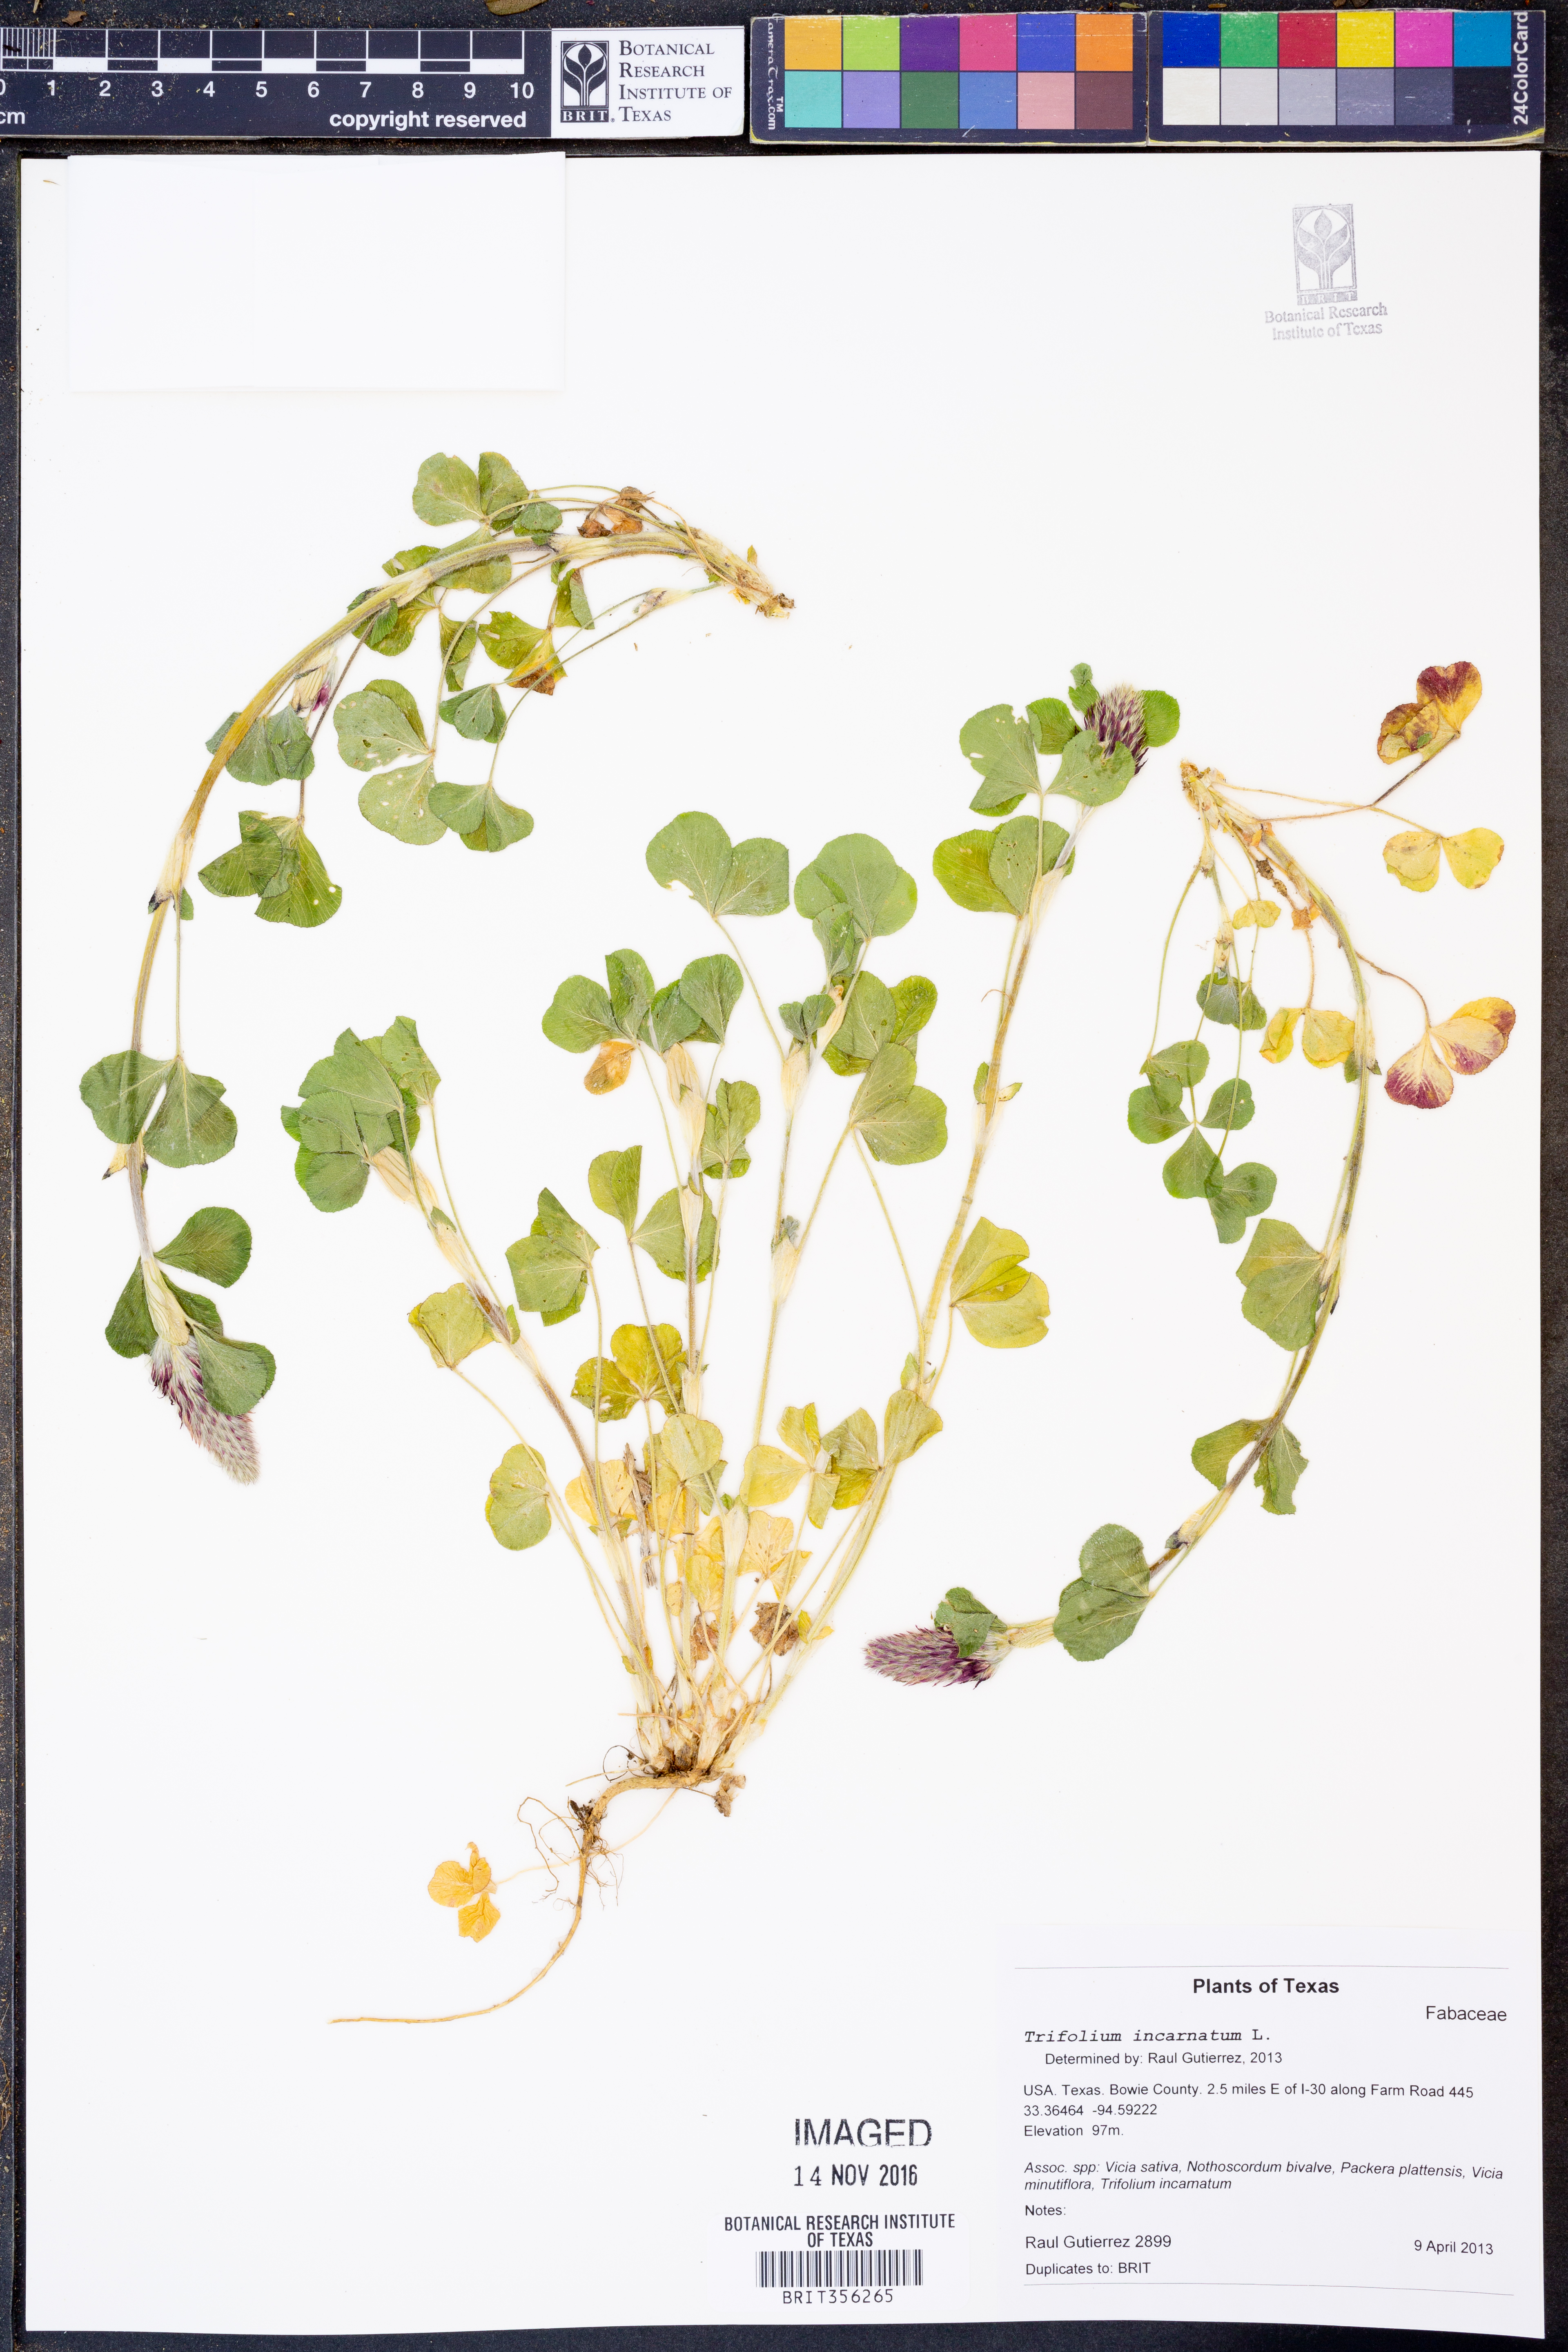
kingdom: Plantae
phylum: Tracheophyta
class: Magnoliopsida
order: Fabales
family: Fabaceae
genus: Trifolium
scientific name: Trifolium incarnatum
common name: Crimson clover
